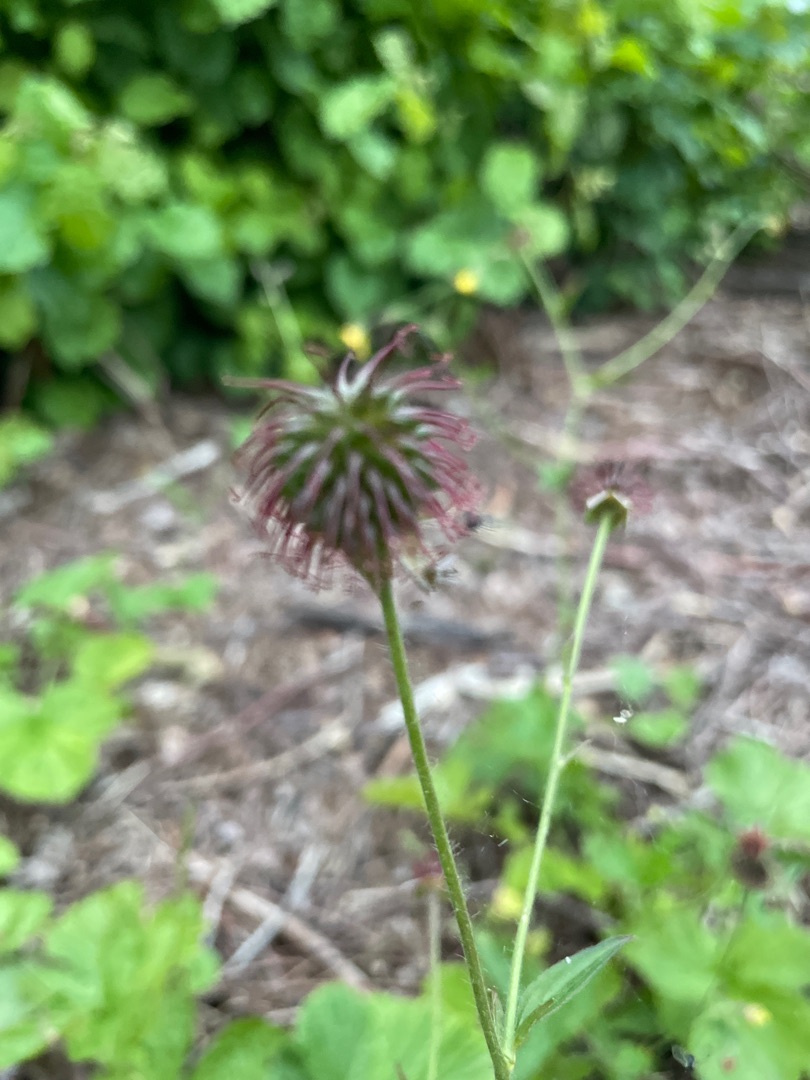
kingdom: Plantae
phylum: Tracheophyta
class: Magnoliopsida
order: Rosales
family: Rosaceae
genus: Geum
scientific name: Geum urbanum
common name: Feber-nellikerod
